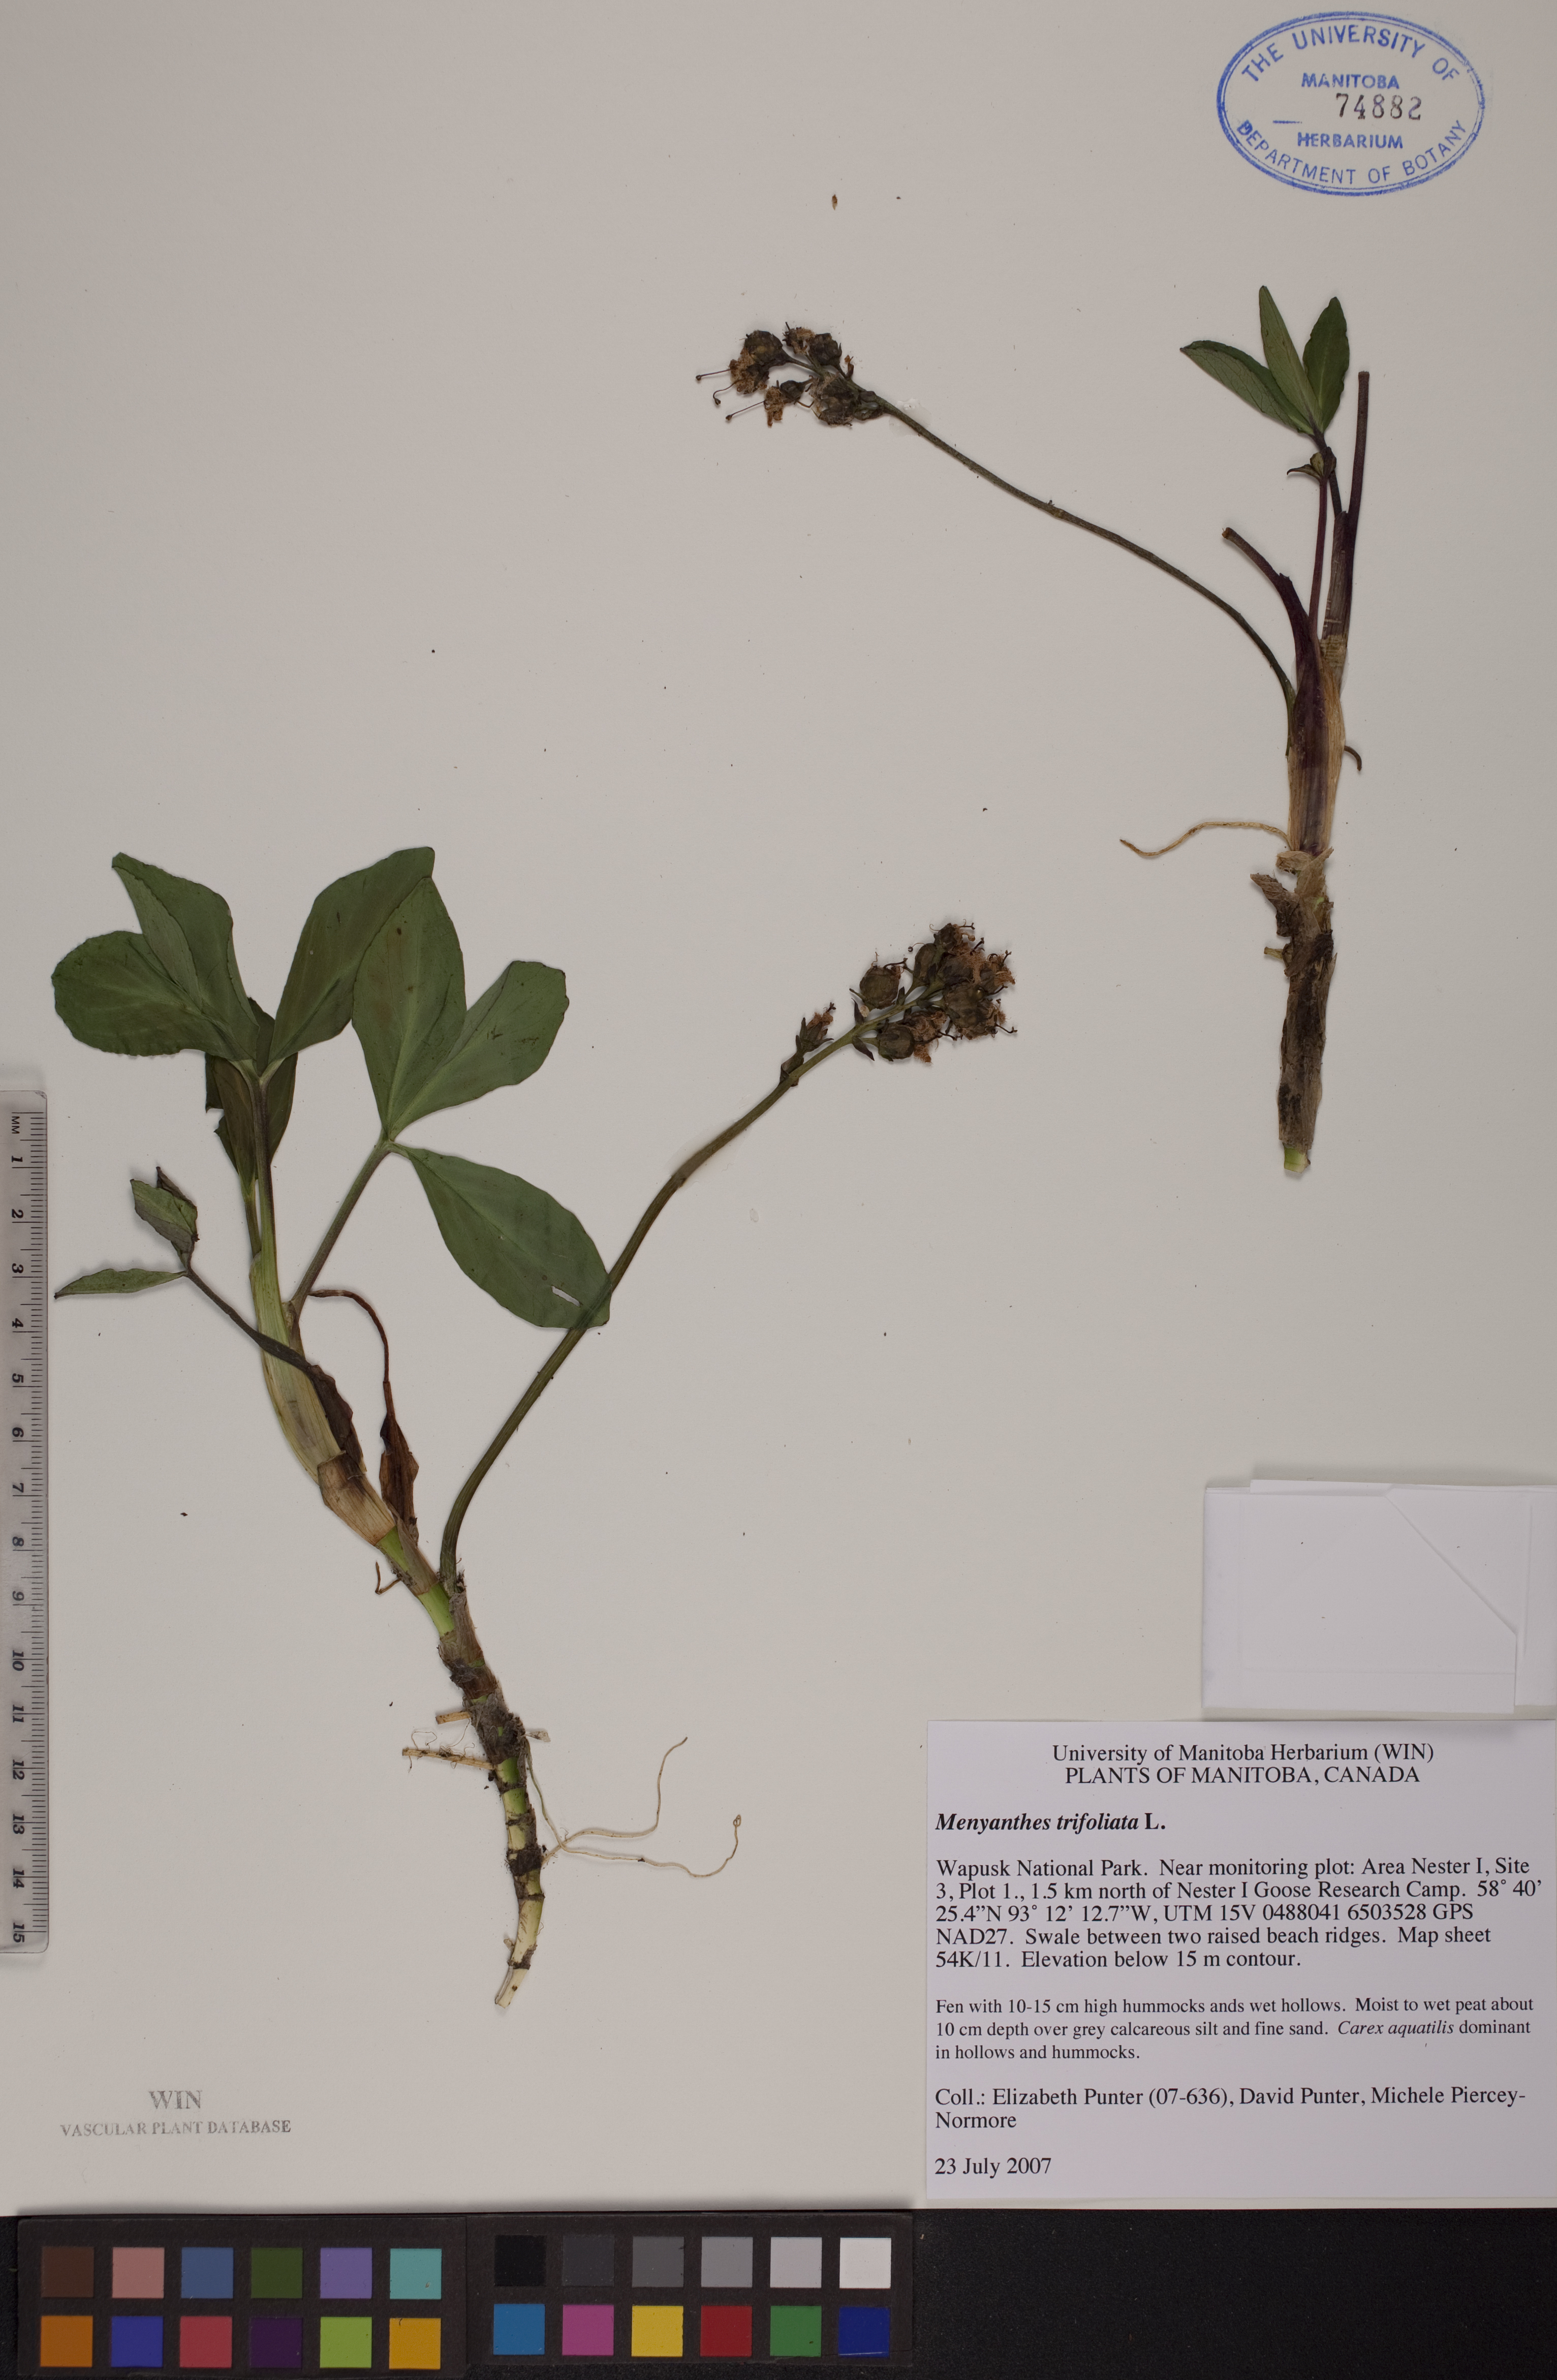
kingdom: Plantae
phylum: Tracheophyta
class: Magnoliopsida
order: Asterales
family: Menyanthaceae
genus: Menyanthes
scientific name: Menyanthes trifoliata
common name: Bogbean
